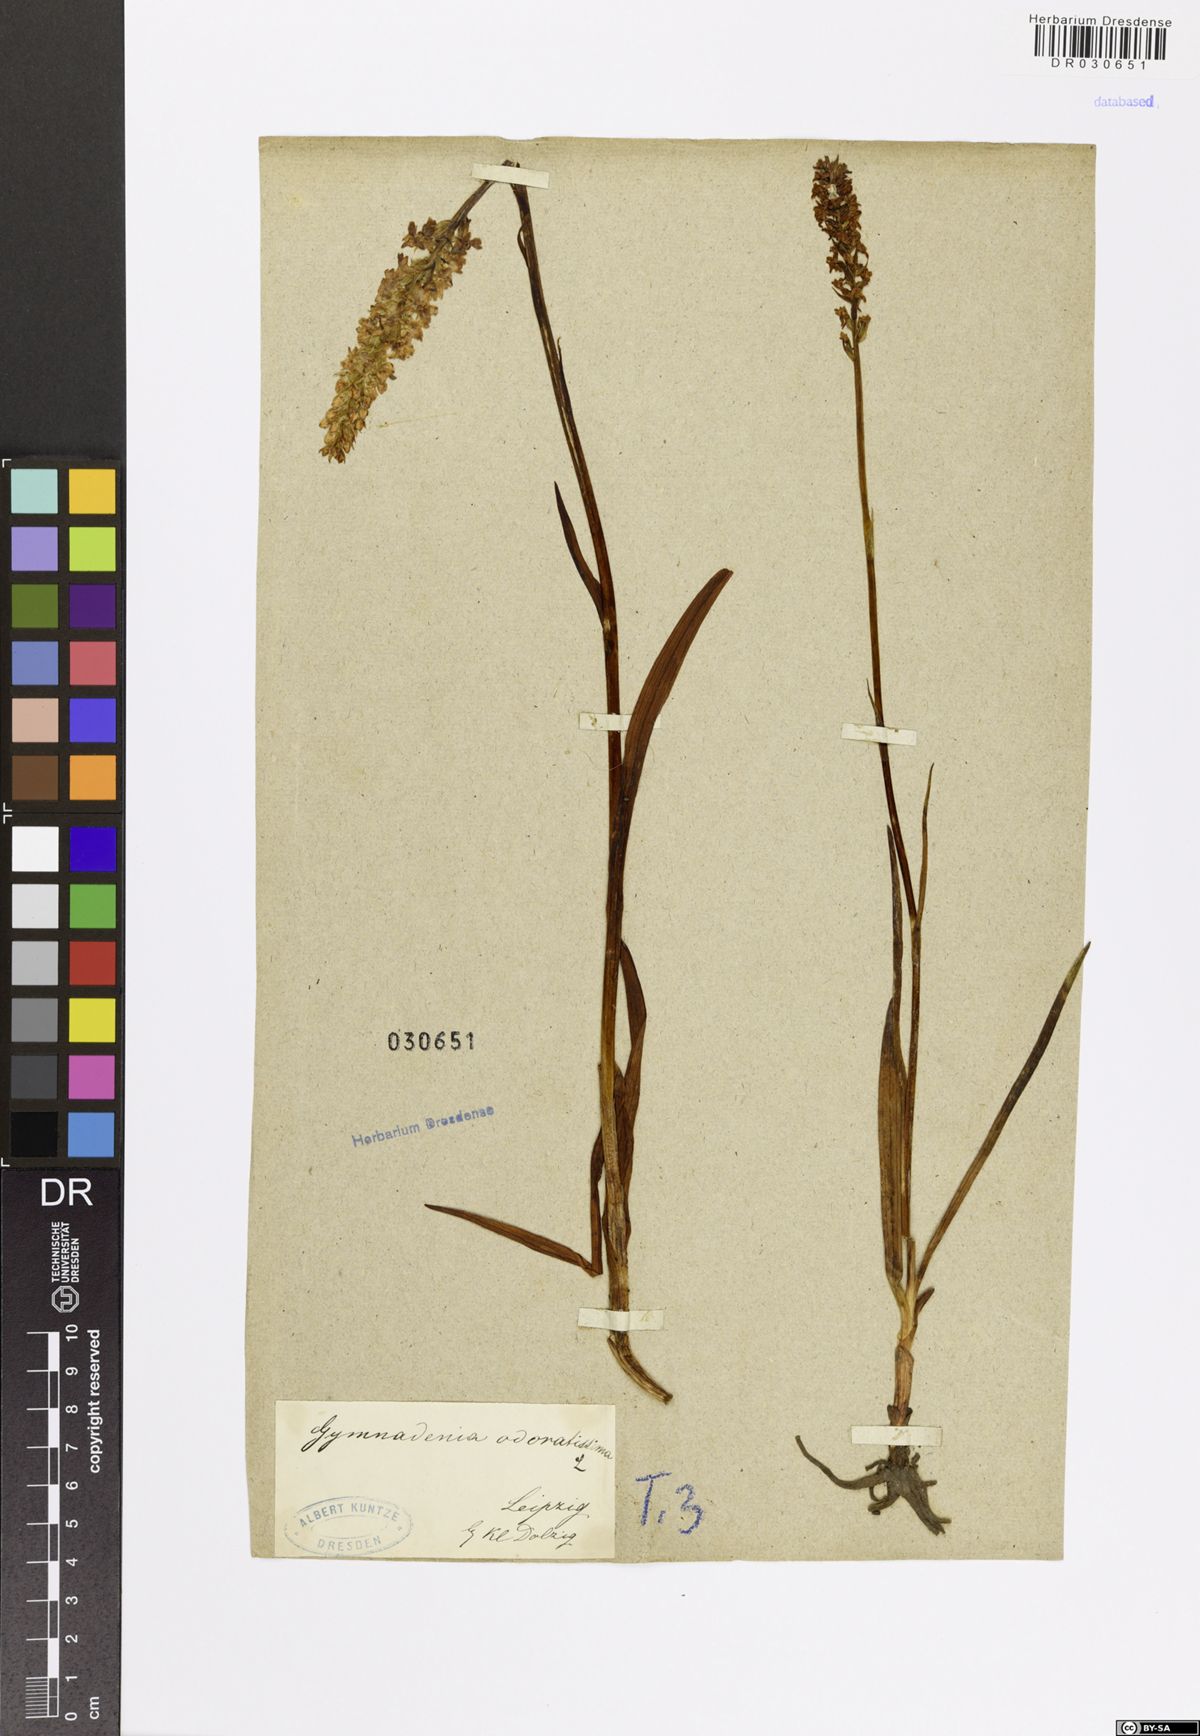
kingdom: Plantae
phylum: Tracheophyta
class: Liliopsida
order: Asparagales
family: Orchidaceae
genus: Gymnadenia
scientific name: Gymnadenia odoratissima
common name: Scented gymnadenia
